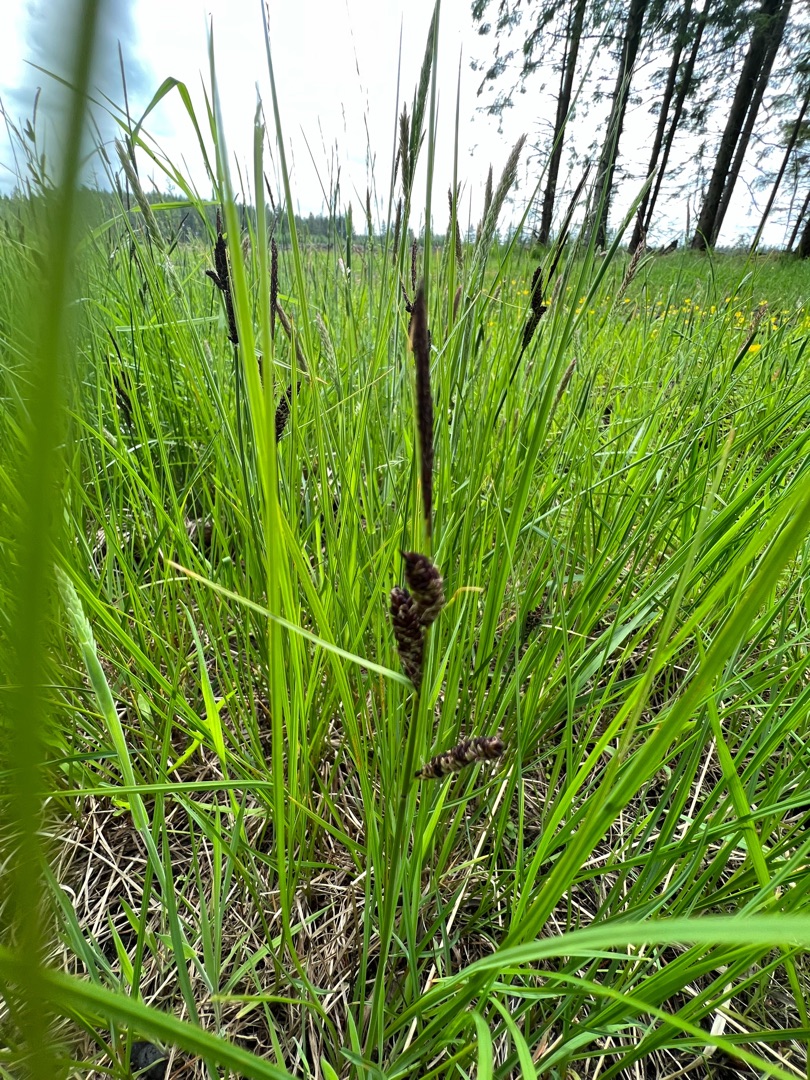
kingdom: Plantae
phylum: Tracheophyta
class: Liliopsida
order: Poales
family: Cyperaceae
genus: Carex
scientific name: Carex nigra
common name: Almindelig star
